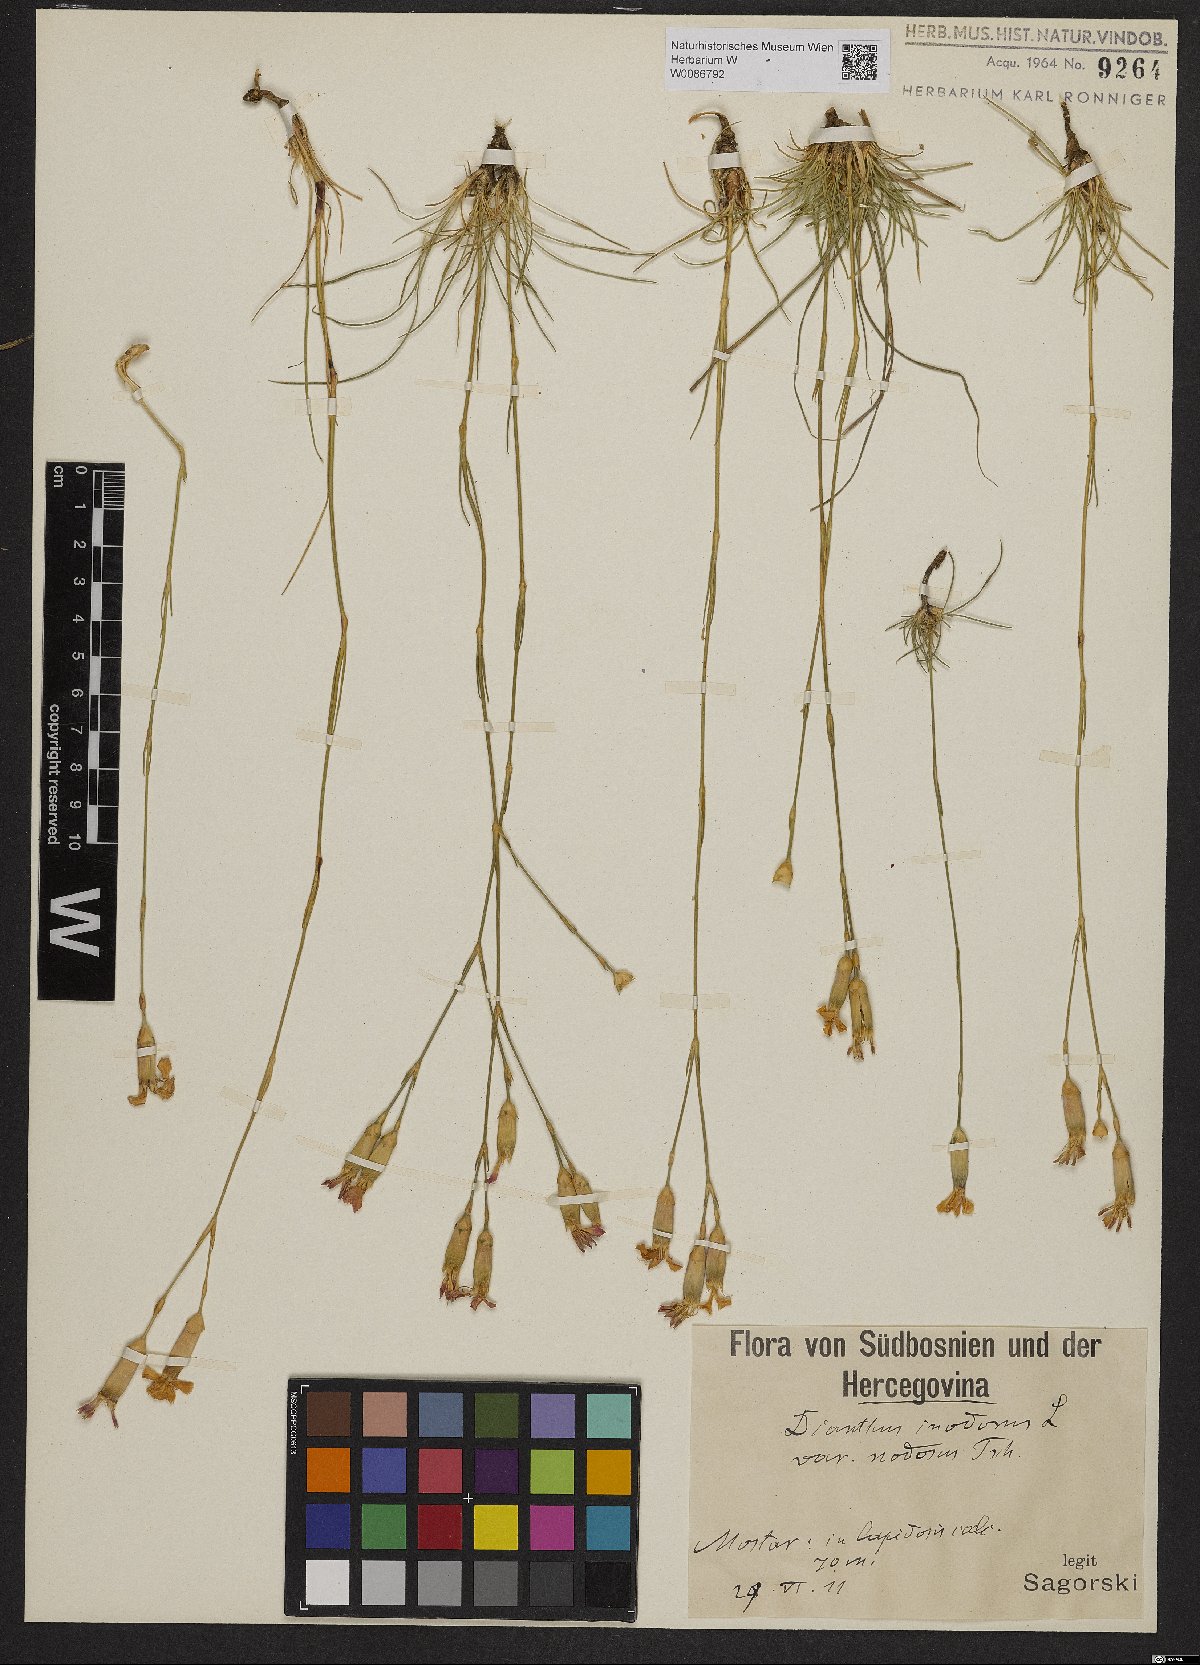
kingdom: Plantae
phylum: Tracheophyta
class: Magnoliopsida
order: Caryophyllales
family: Caryophyllaceae
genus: Dianthus
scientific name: Dianthus sylvestris
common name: Wood pink
